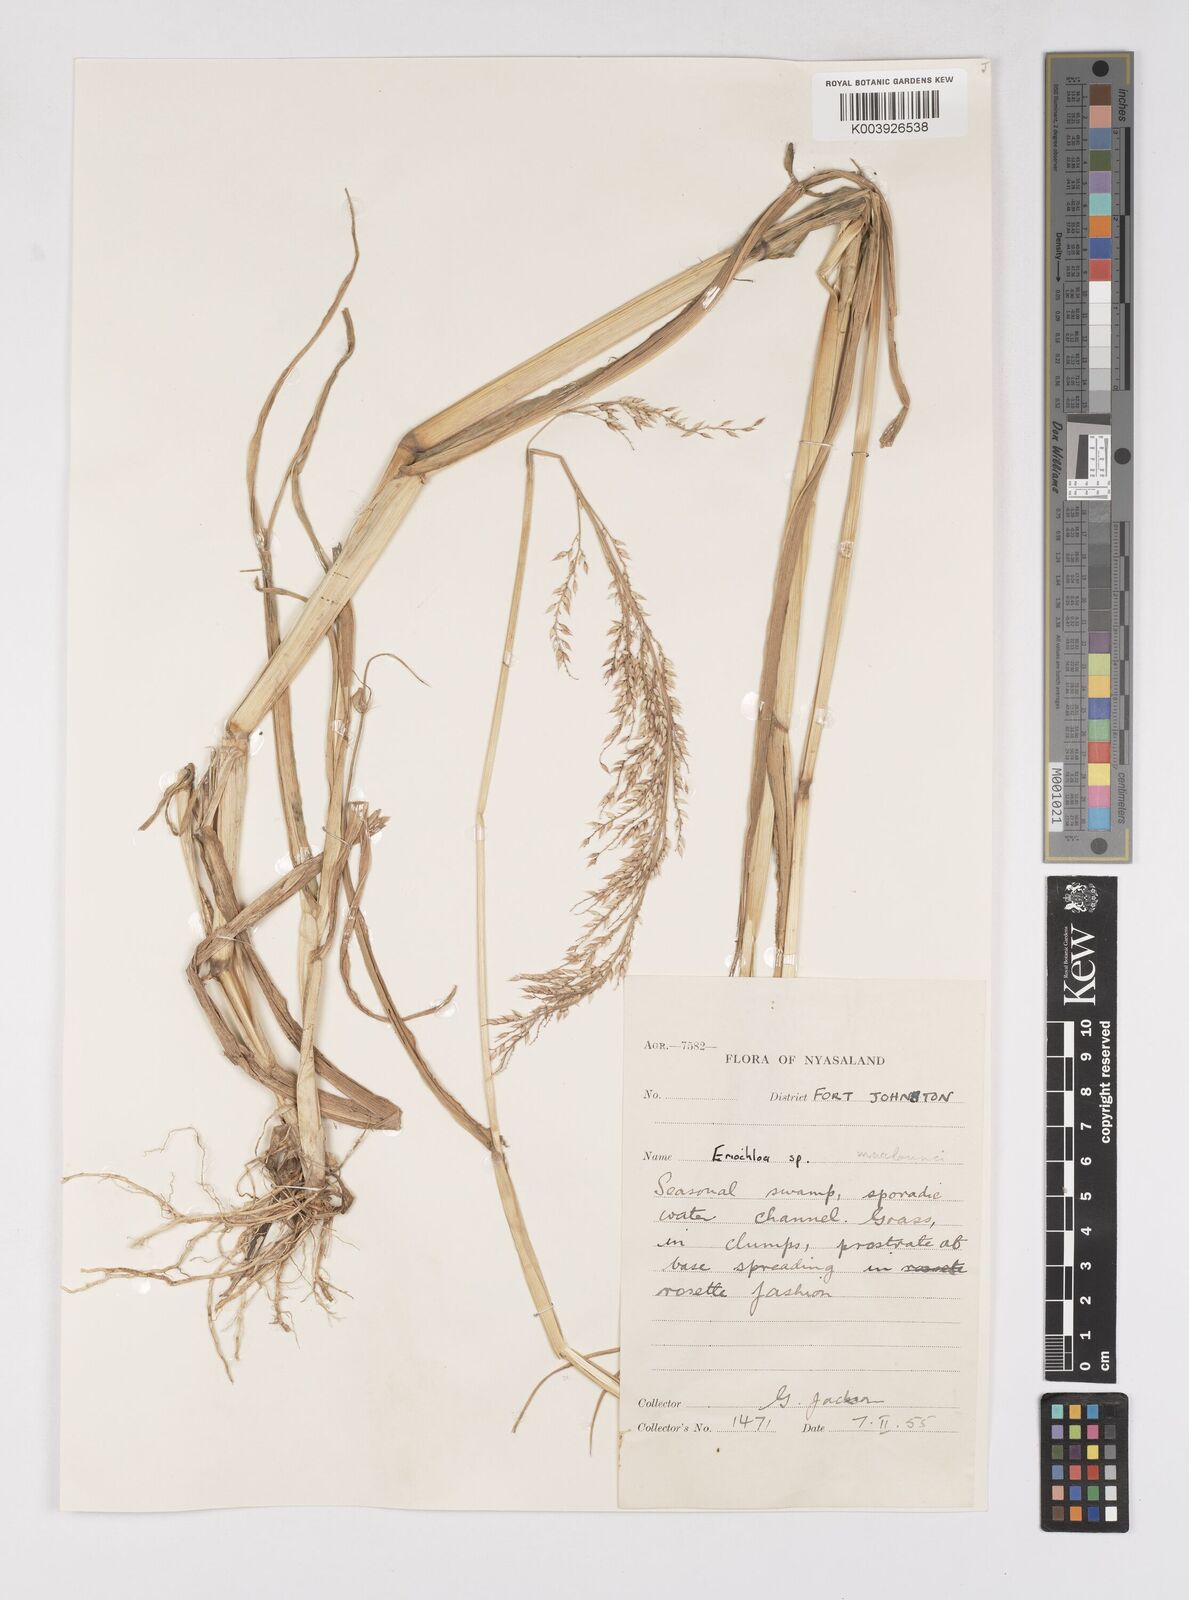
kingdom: Plantae
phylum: Tracheophyta
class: Liliopsida
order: Poales
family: Poaceae
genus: Eriochloa
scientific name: Eriochloa macclounii
